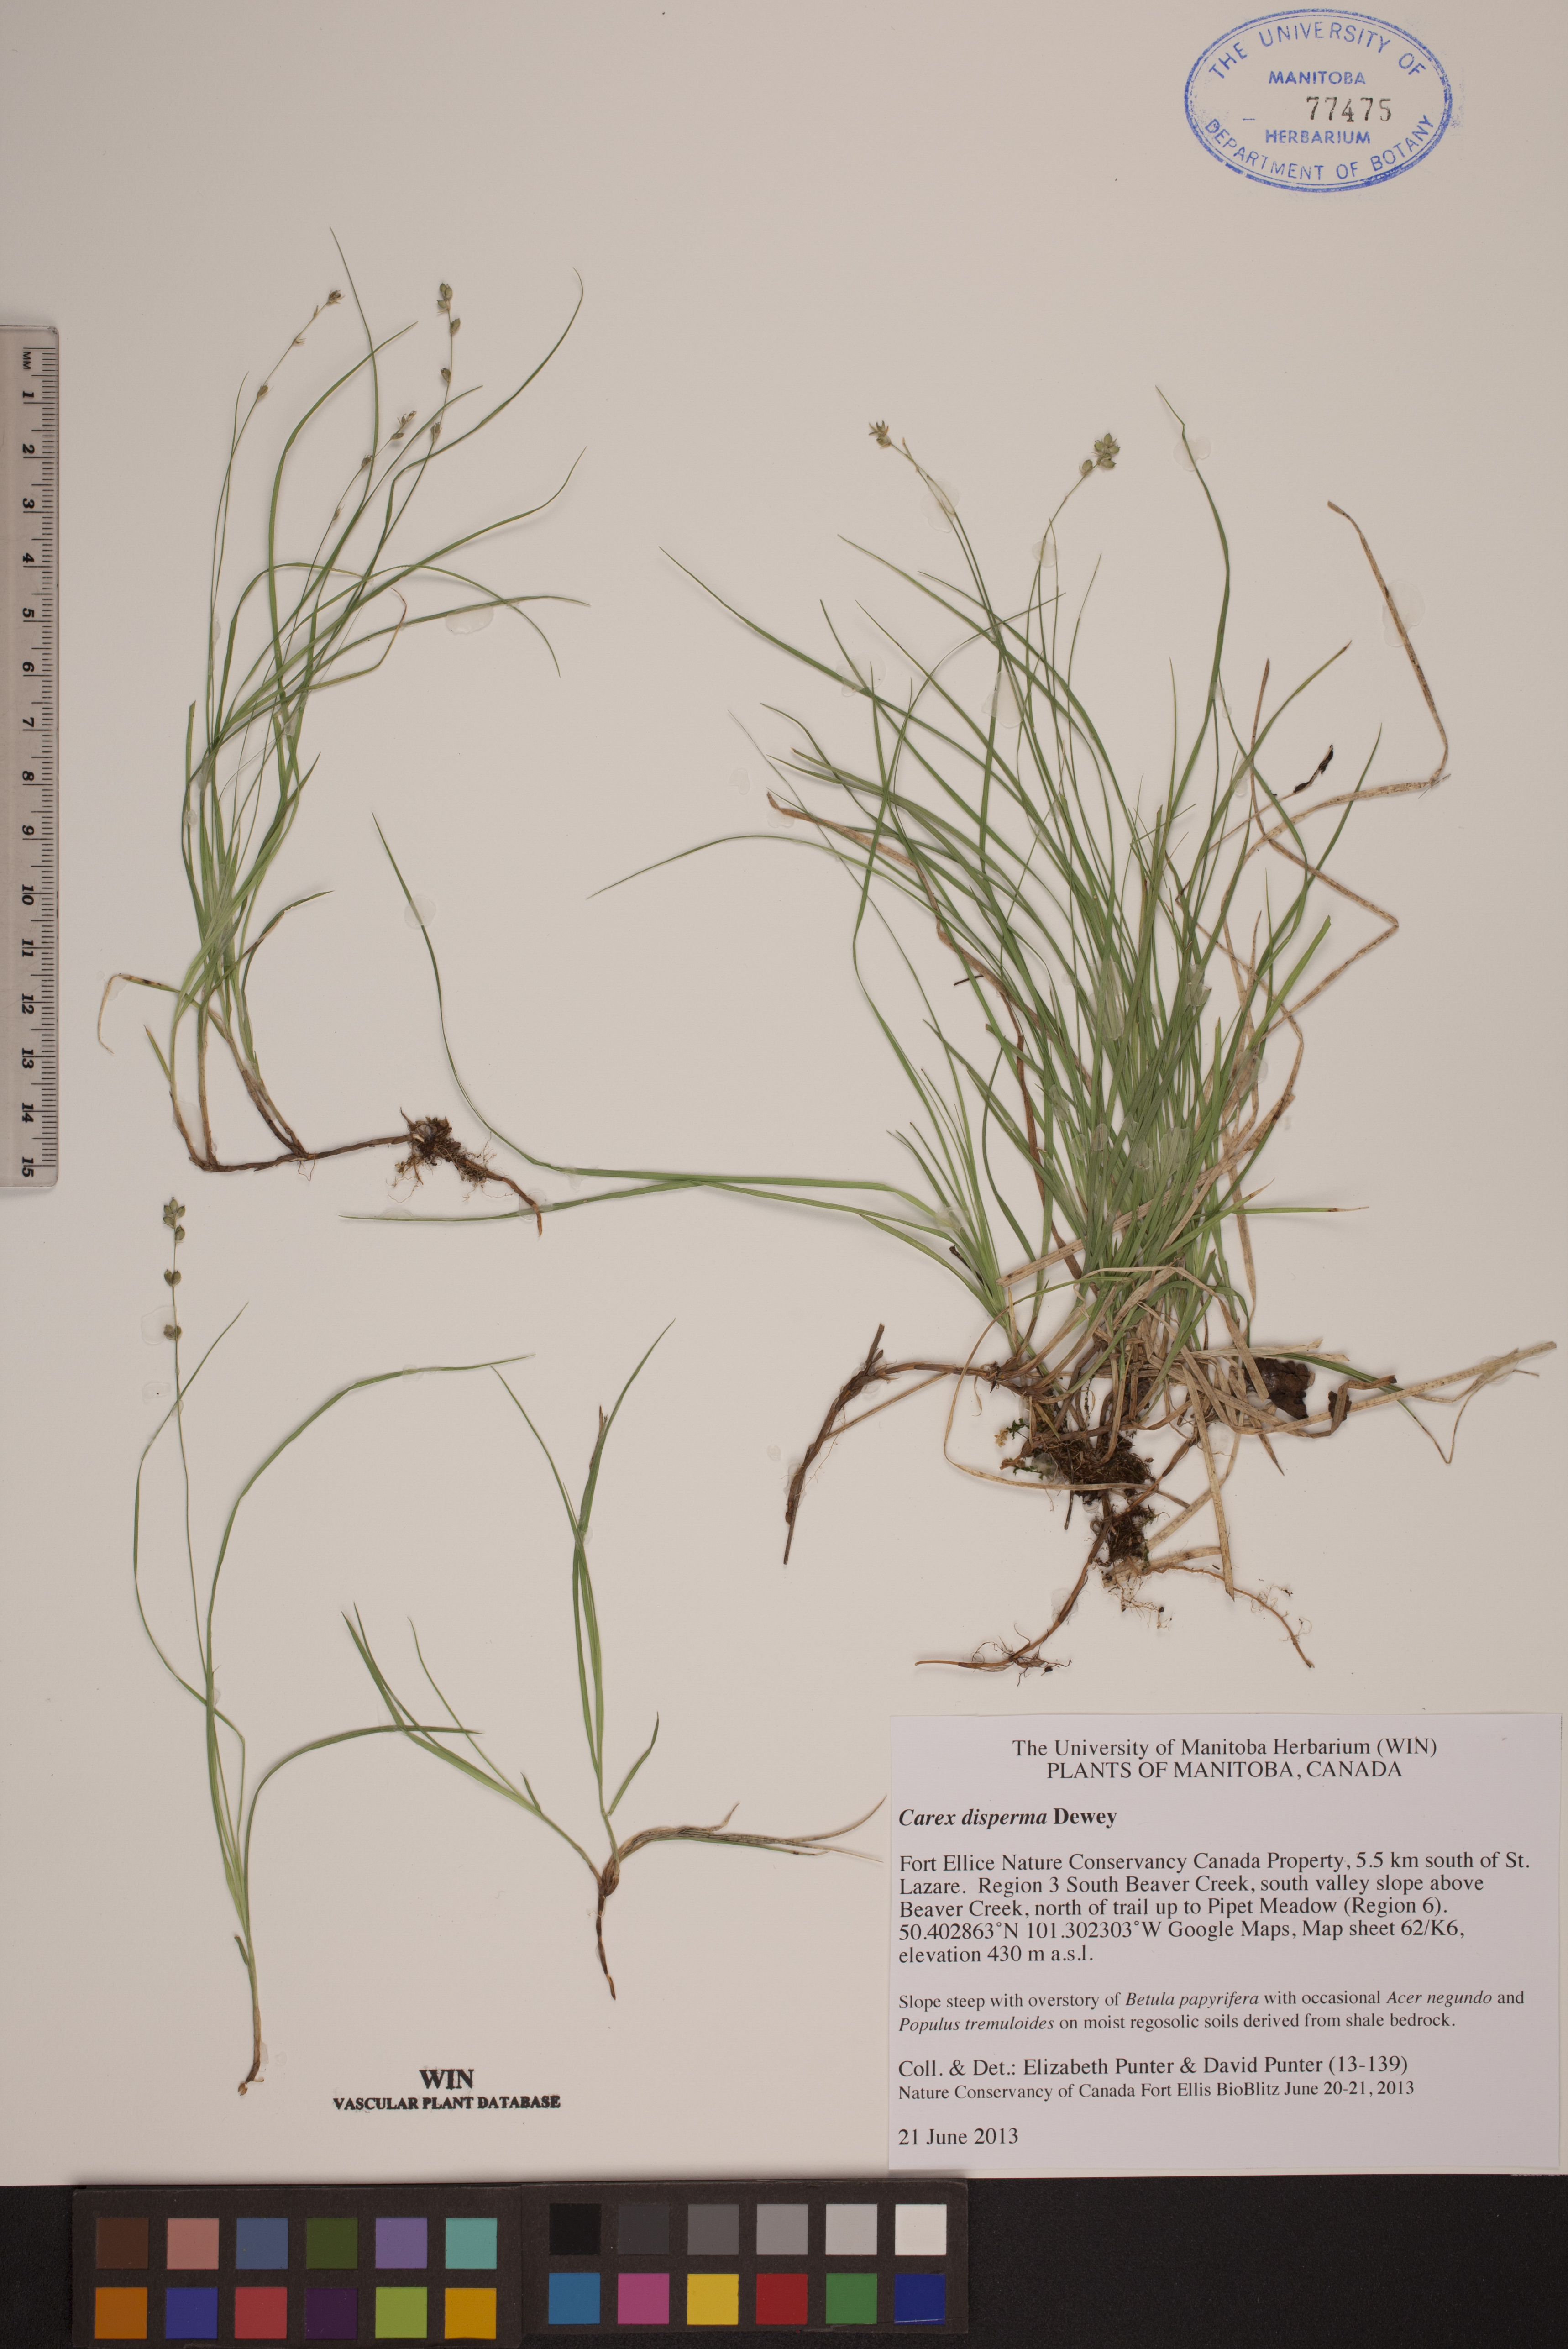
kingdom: Plantae
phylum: Tracheophyta
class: Liliopsida
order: Poales
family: Cyperaceae
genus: Carex
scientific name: Carex disperma
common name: Short-leaved sedge
